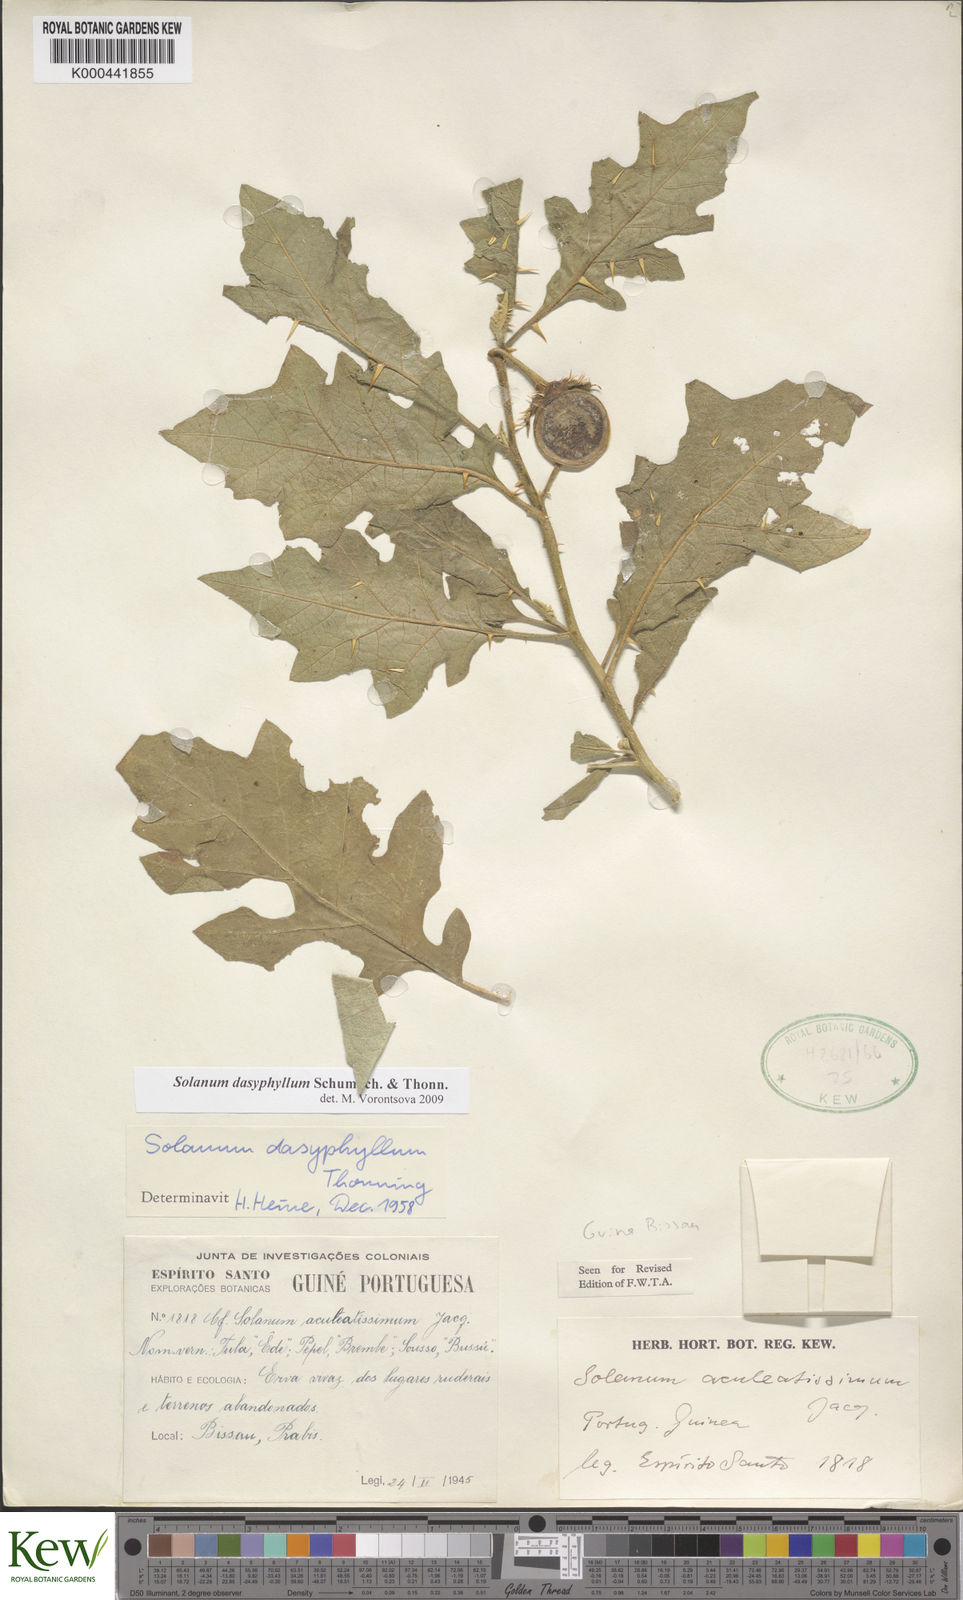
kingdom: Plantae
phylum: Tracheophyta
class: Magnoliopsida
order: Solanales
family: Solanaceae
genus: Solanum
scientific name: Solanum dasyphyllum
